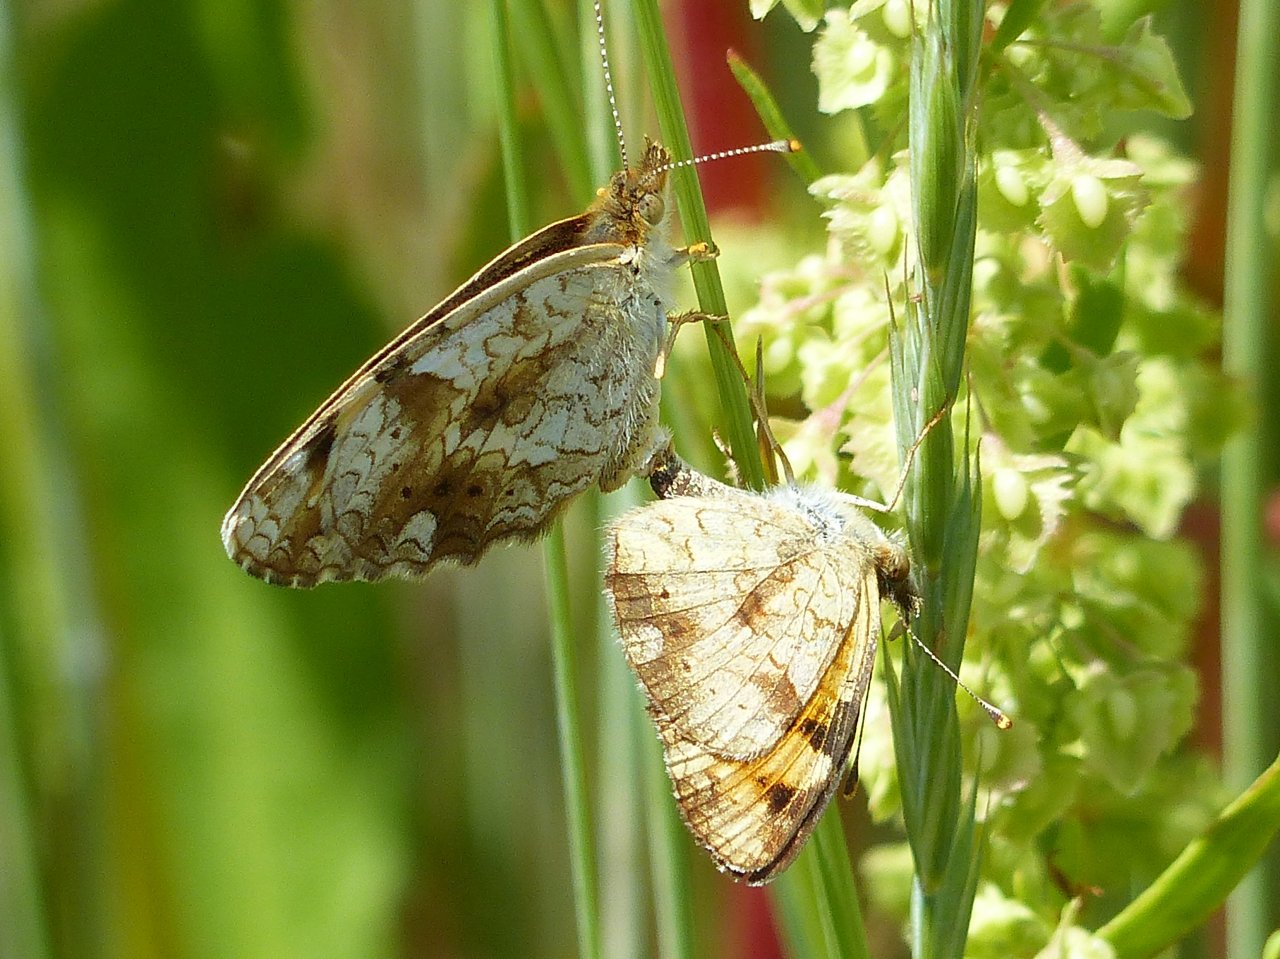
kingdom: Animalia
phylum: Arthropoda
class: Insecta
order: Lepidoptera
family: Nymphalidae
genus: Phyciodes
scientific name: Phyciodes tharos
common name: Field Crescent
